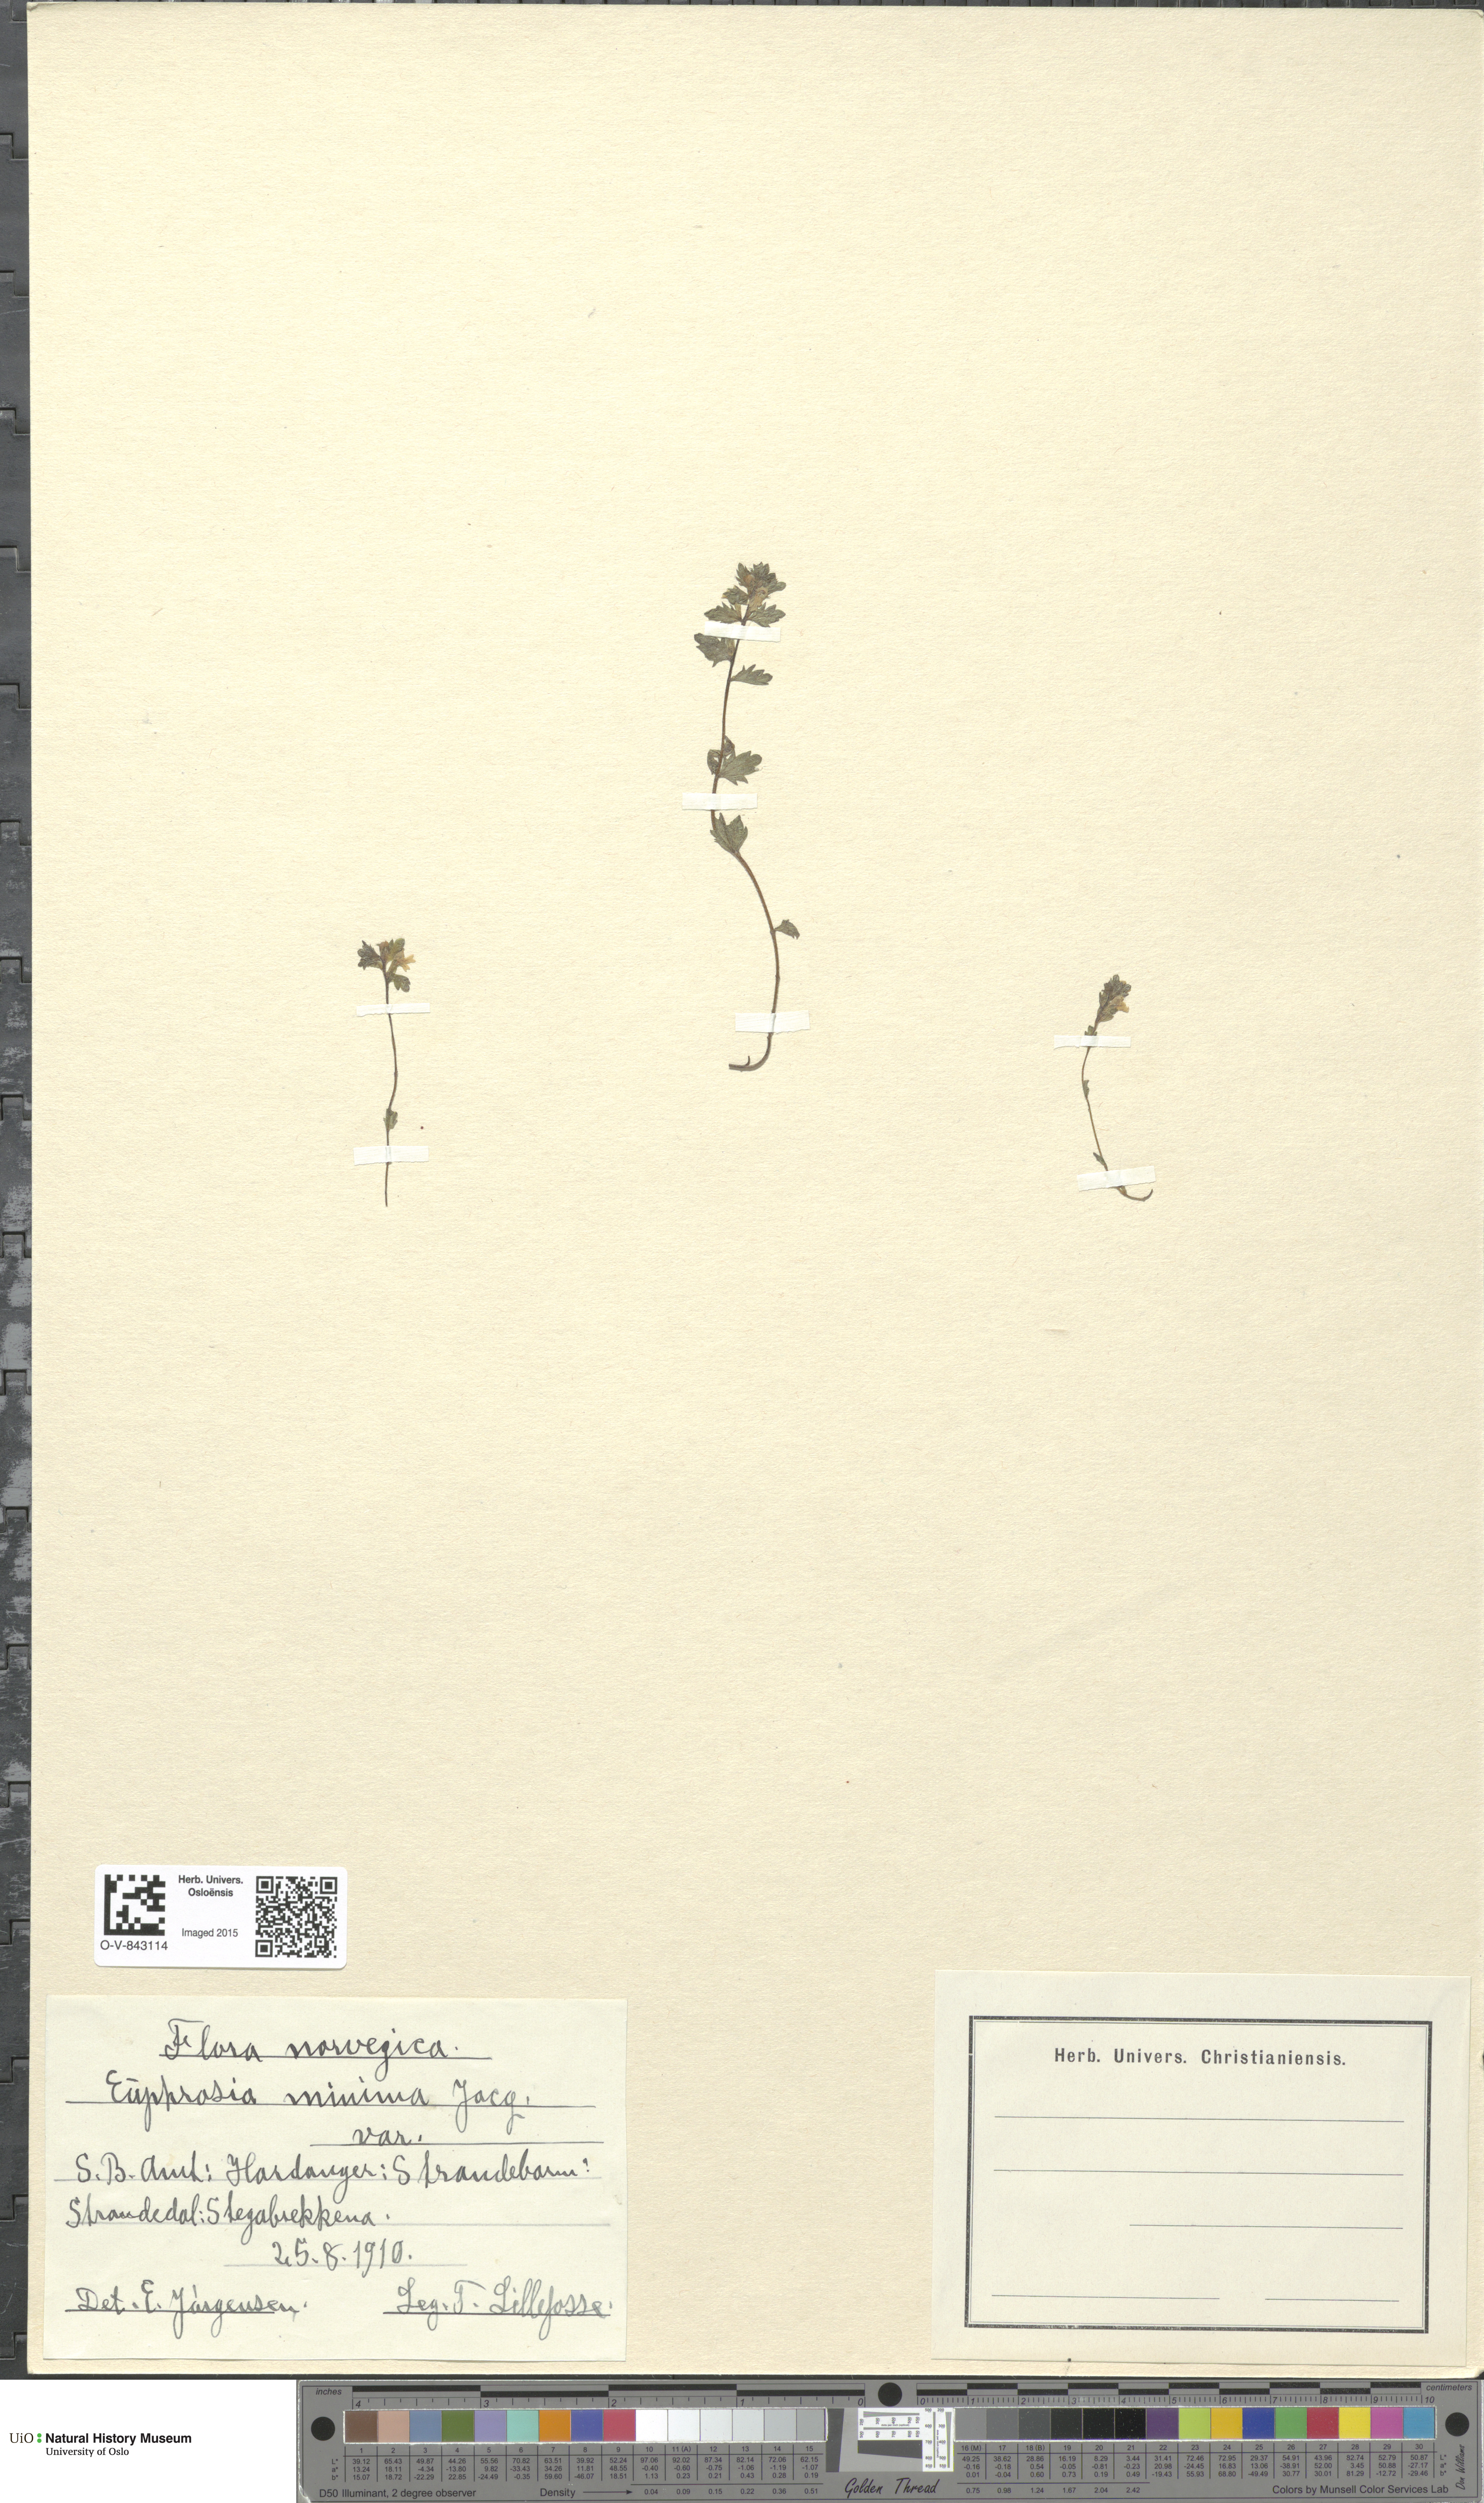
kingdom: Plantae
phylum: Tracheophyta
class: Magnoliopsida
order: Lamiales
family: Orobanchaceae
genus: Euphrasia
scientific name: Euphrasia wettsteinii
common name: Wettstein's eyebright
